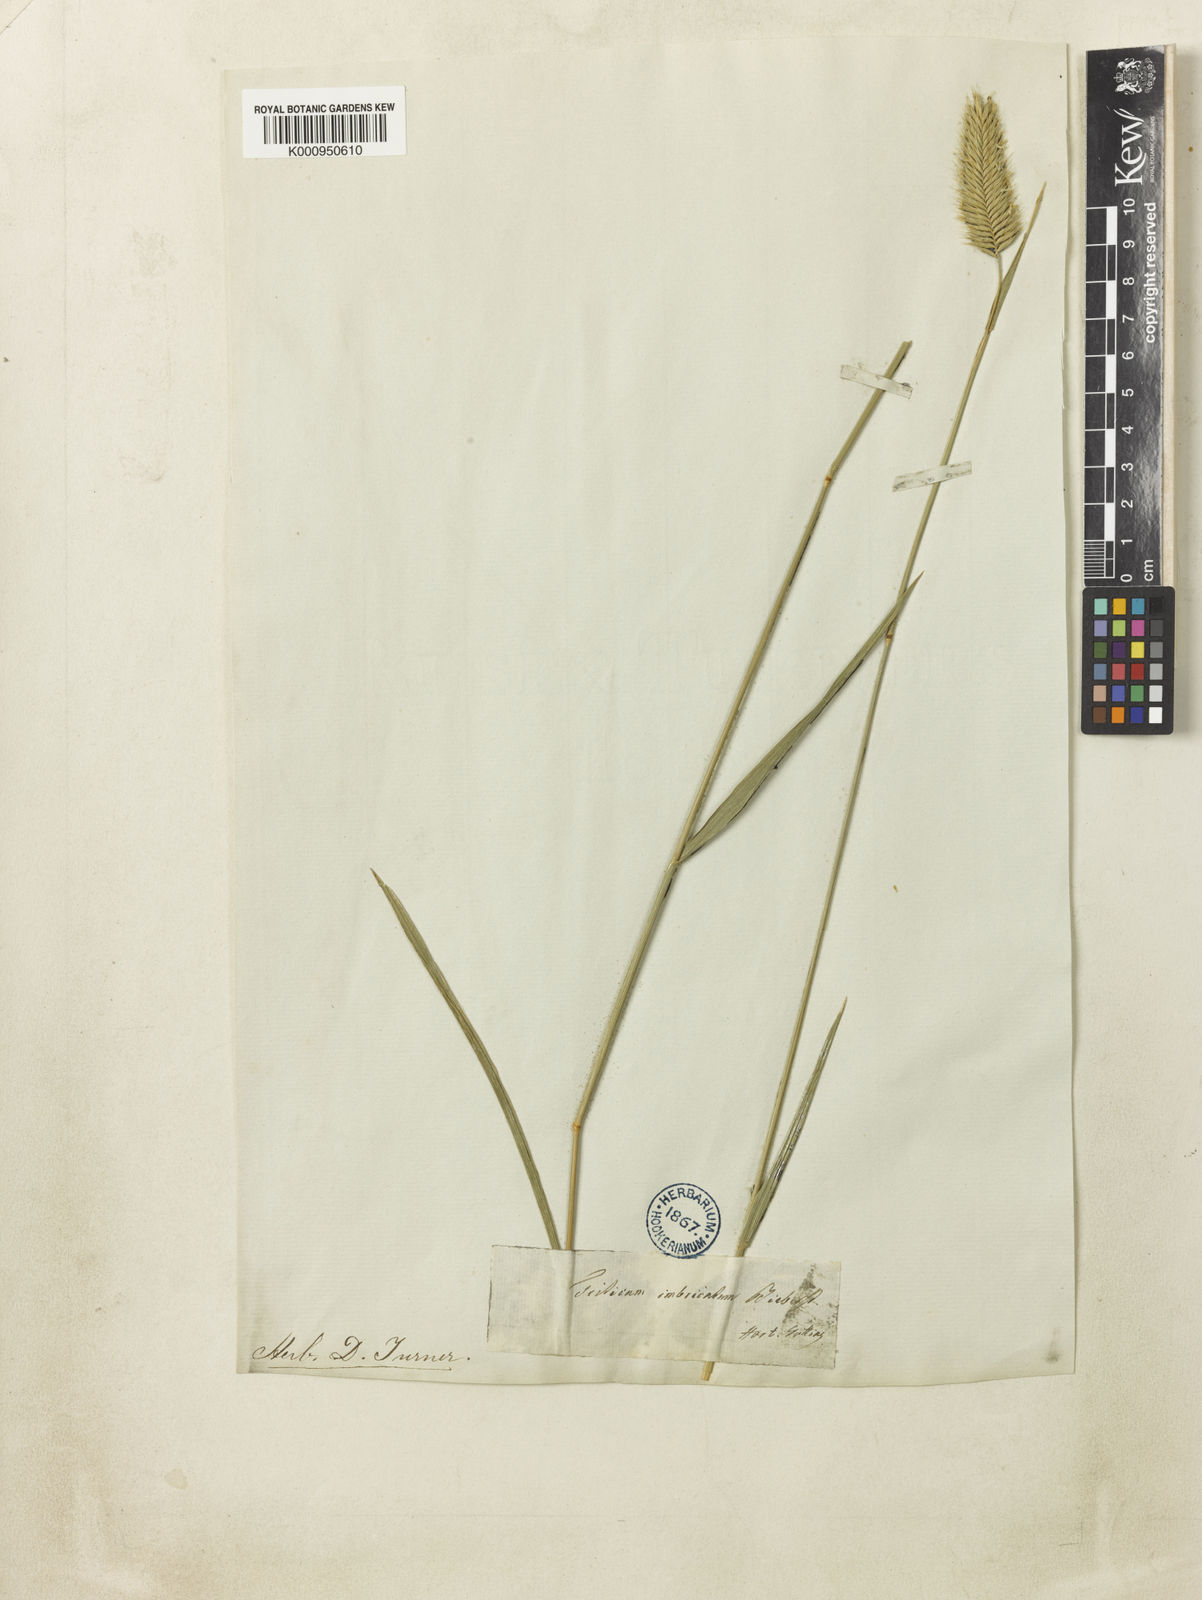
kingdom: Plantae
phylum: Tracheophyta
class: Liliopsida
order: Poales
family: Poaceae
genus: Agropyron
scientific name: Agropyron cristatum
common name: Crested wheatgrass
